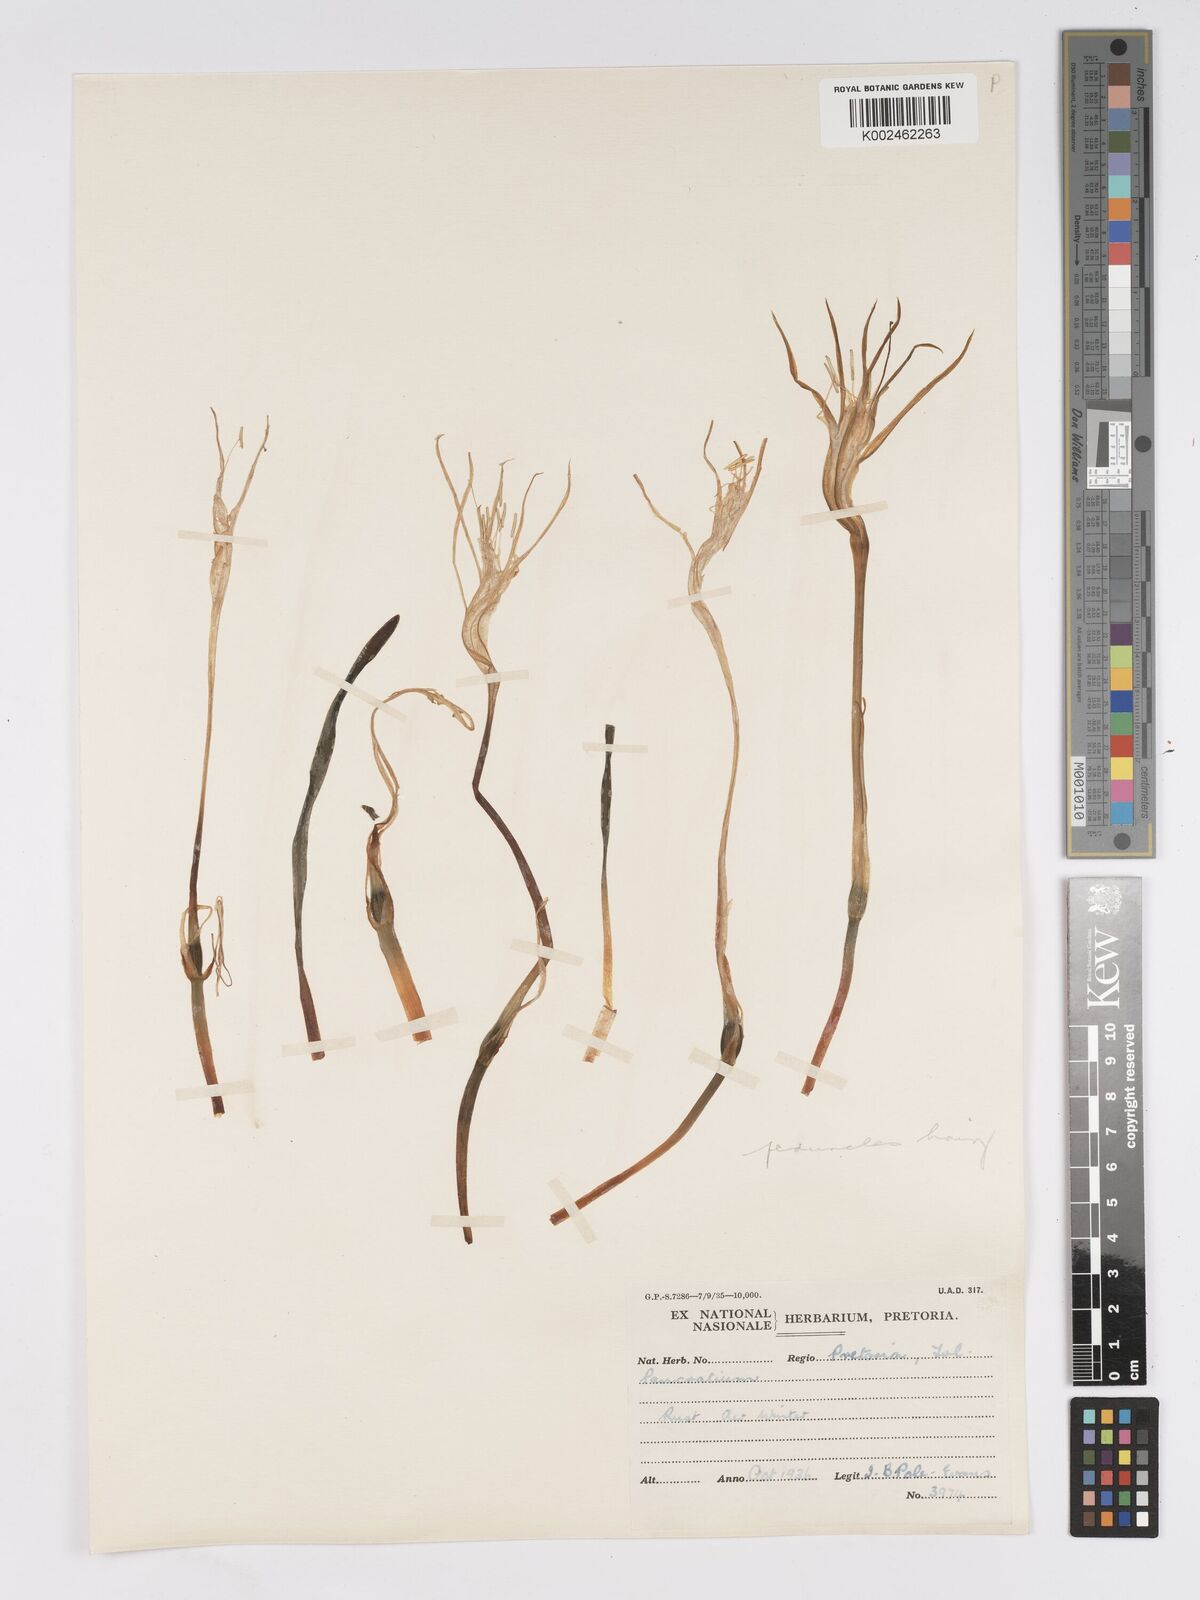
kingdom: Plantae
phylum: Tracheophyta
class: Liliopsida
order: Asparagales
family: Amaryllidaceae
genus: Pancratium
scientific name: Pancratium tenuifolium
